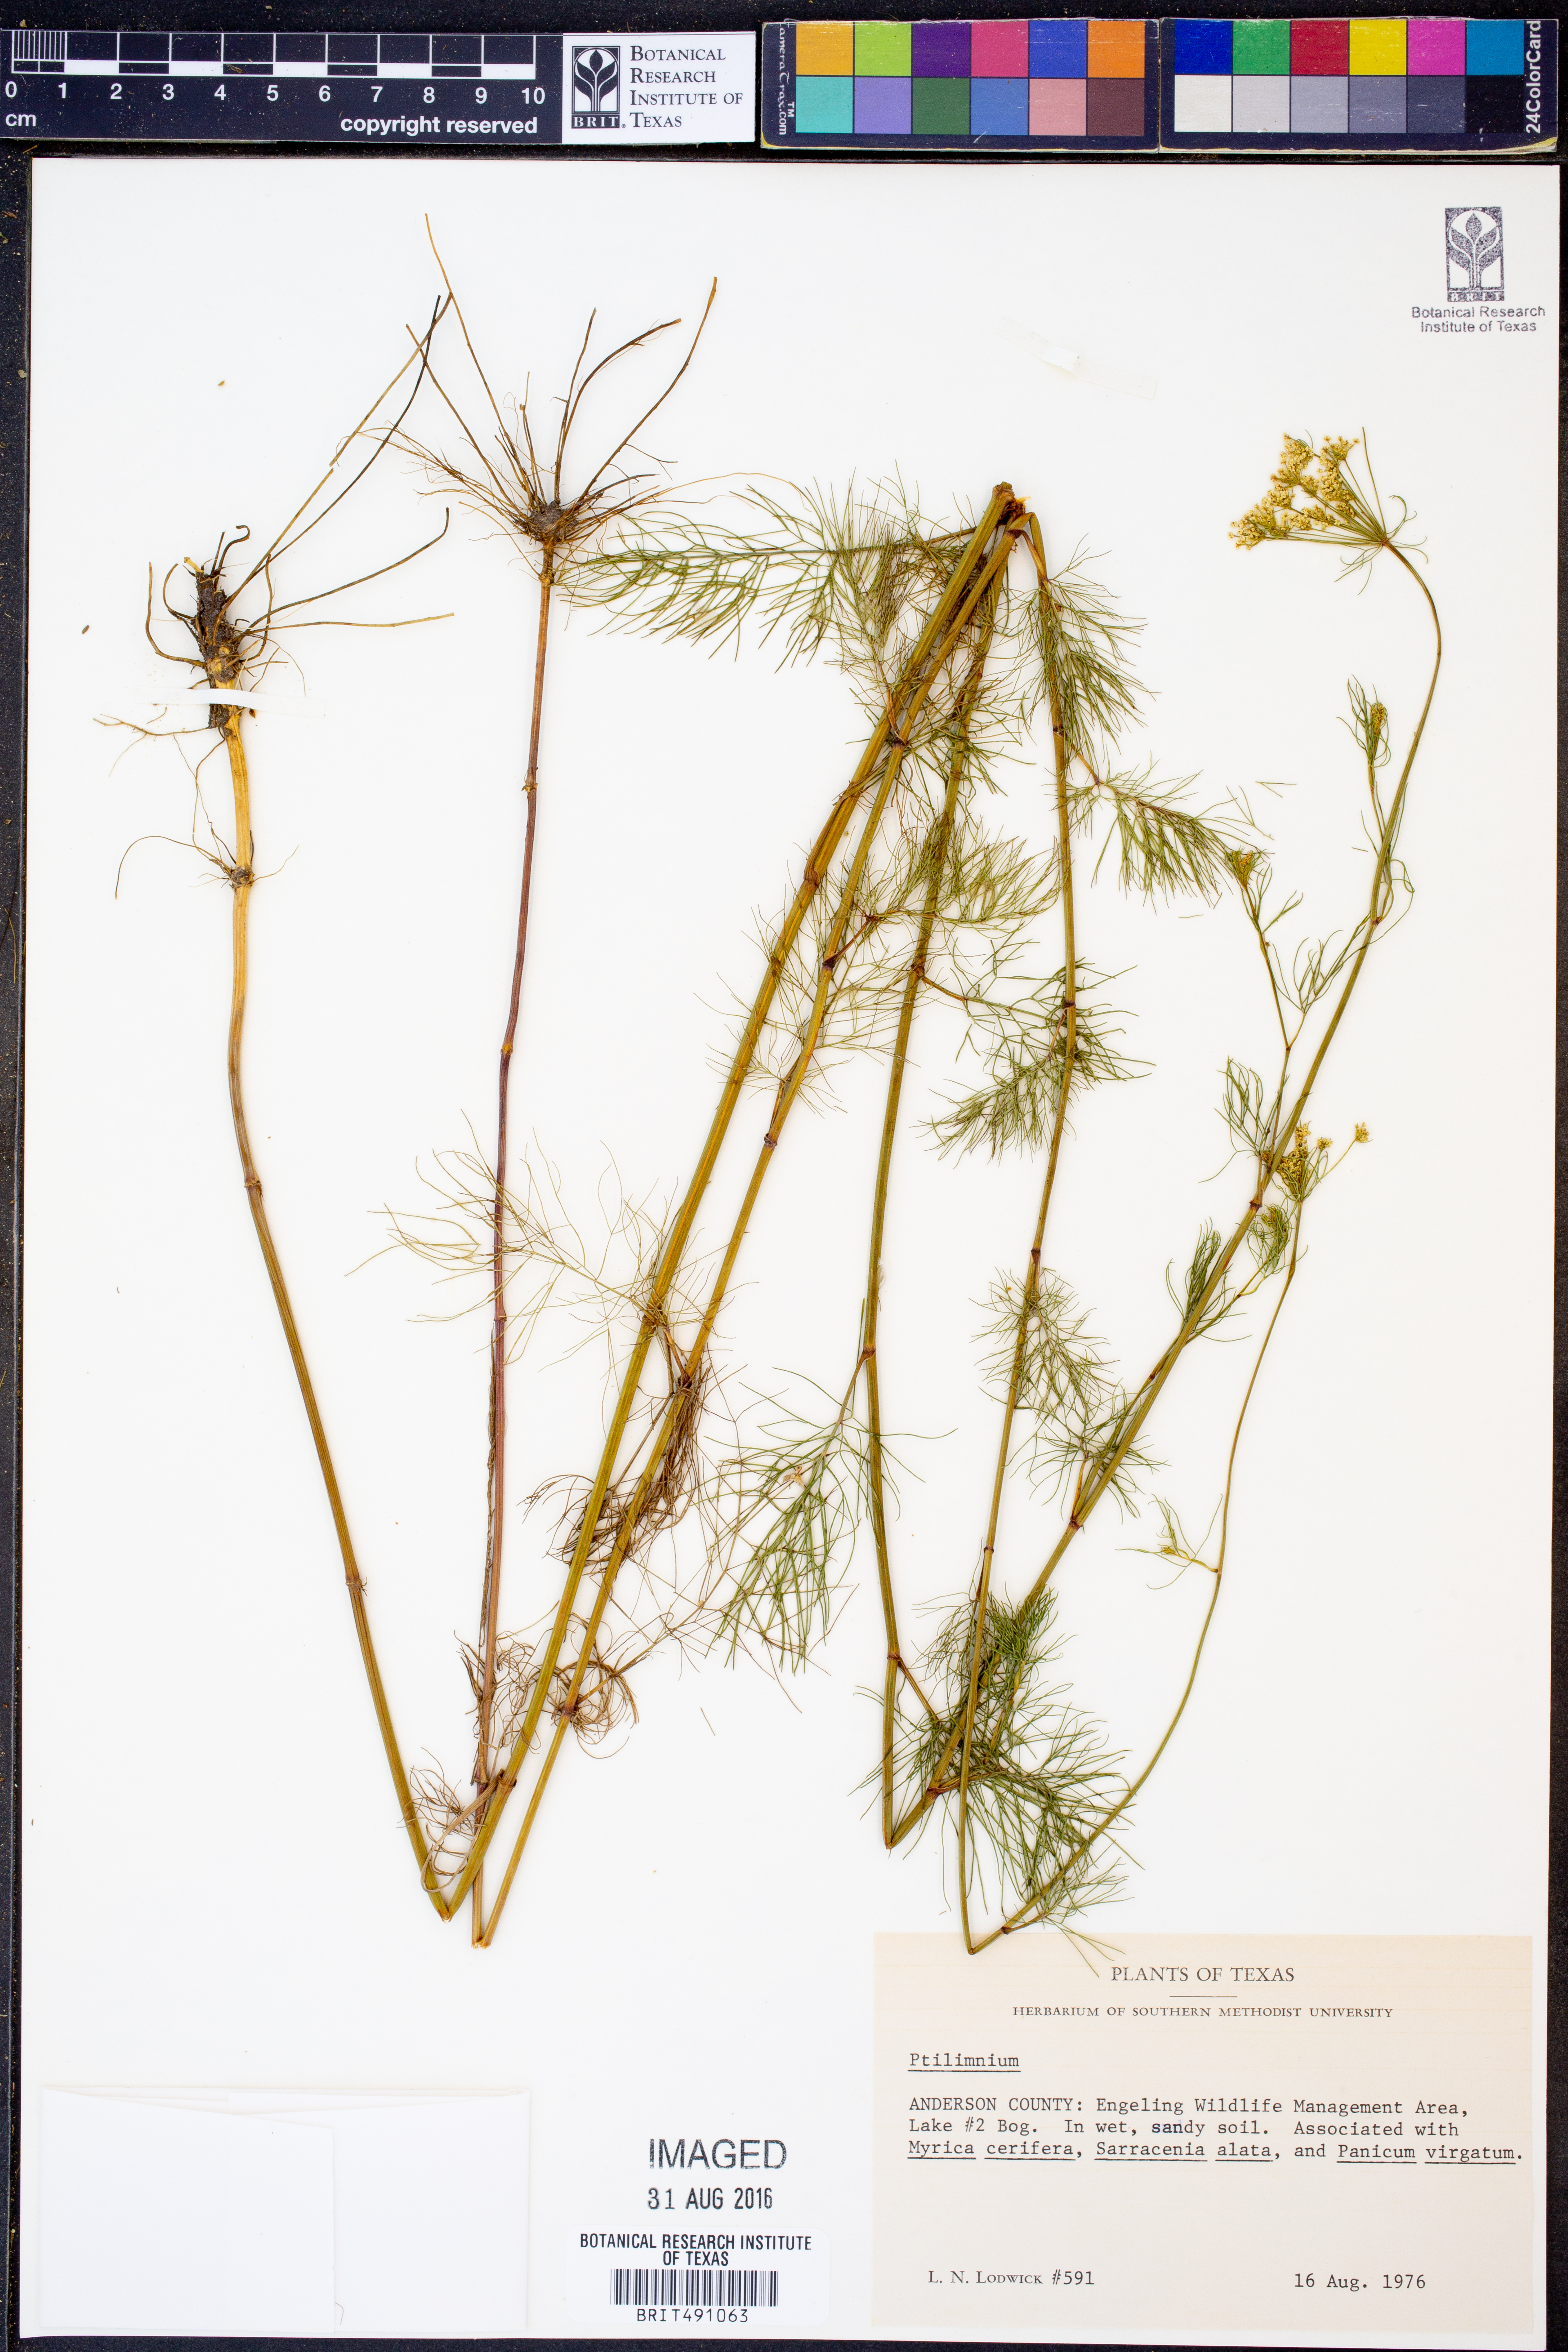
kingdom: Plantae
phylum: Tracheophyta
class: Magnoliopsida
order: Apiales
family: Apiaceae
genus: Ptilimnium
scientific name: Ptilimnium capillaceum
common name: Herbwilliam
